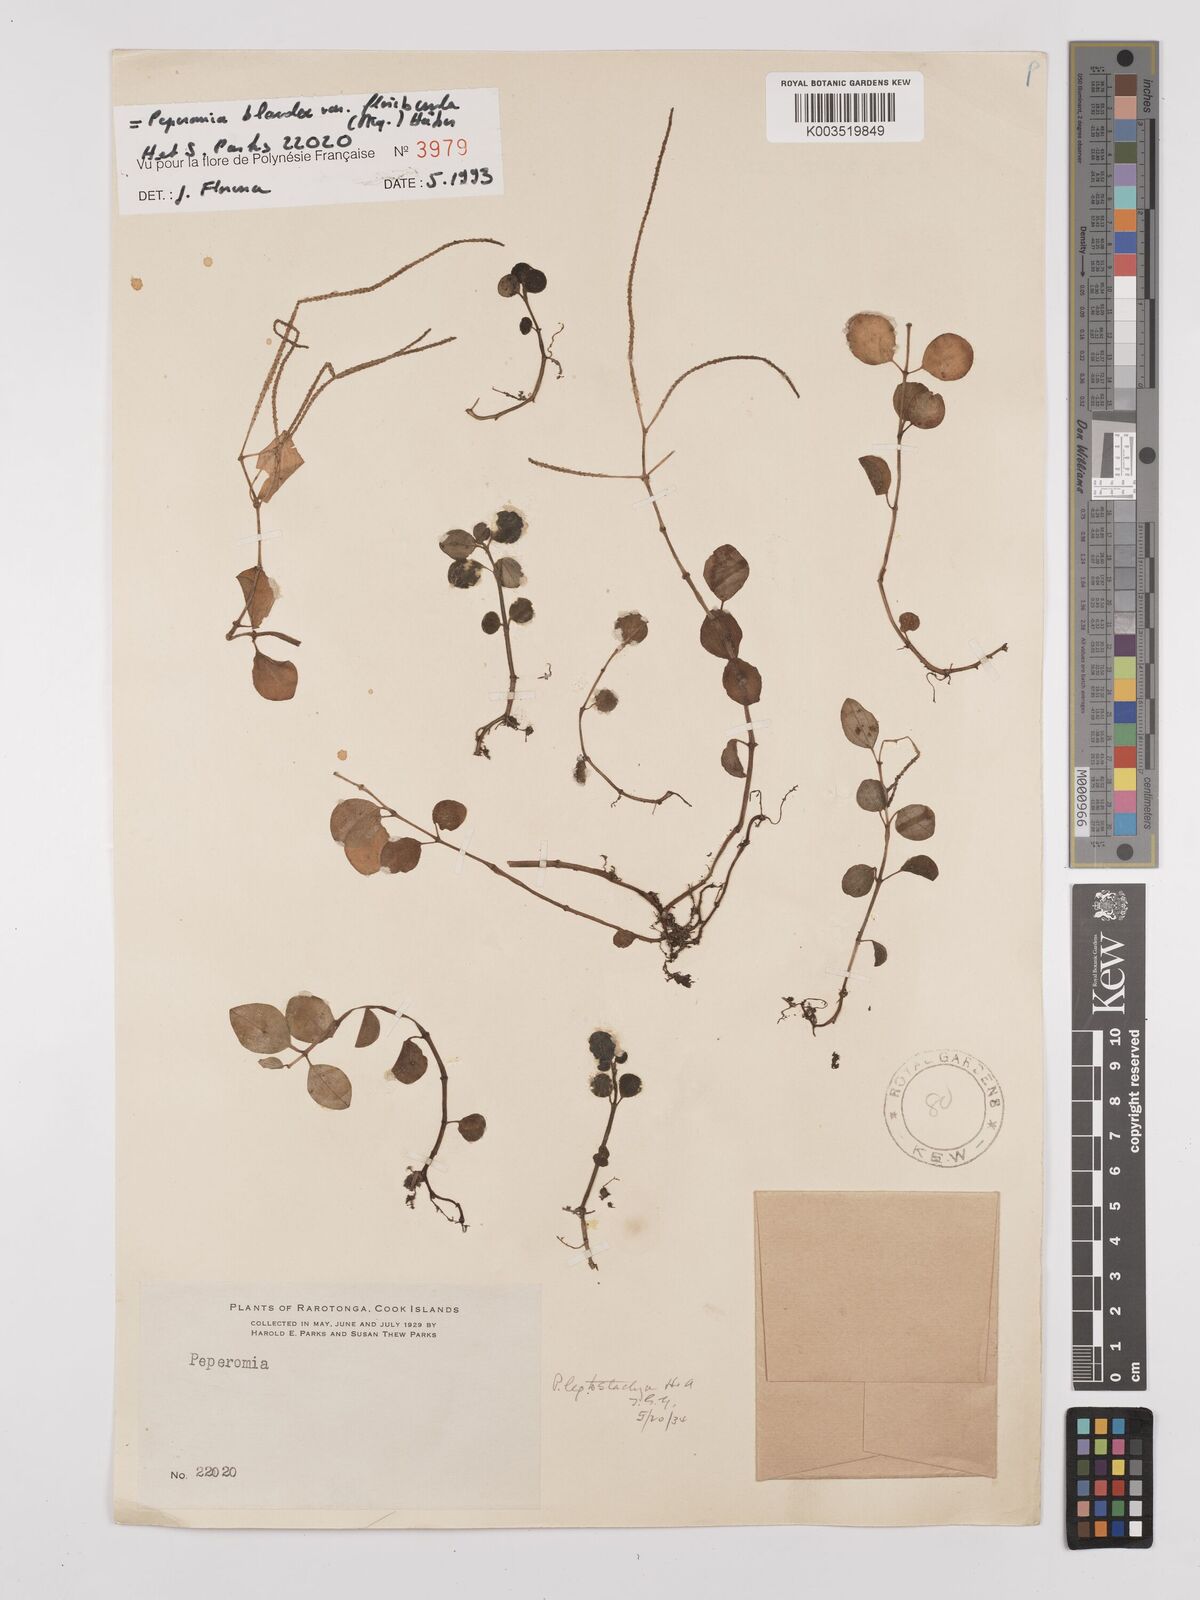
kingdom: Plantae
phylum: Tracheophyta
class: Magnoliopsida
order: Piperales
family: Piperaceae
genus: Peperomia
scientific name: Peperomia leptostachya
